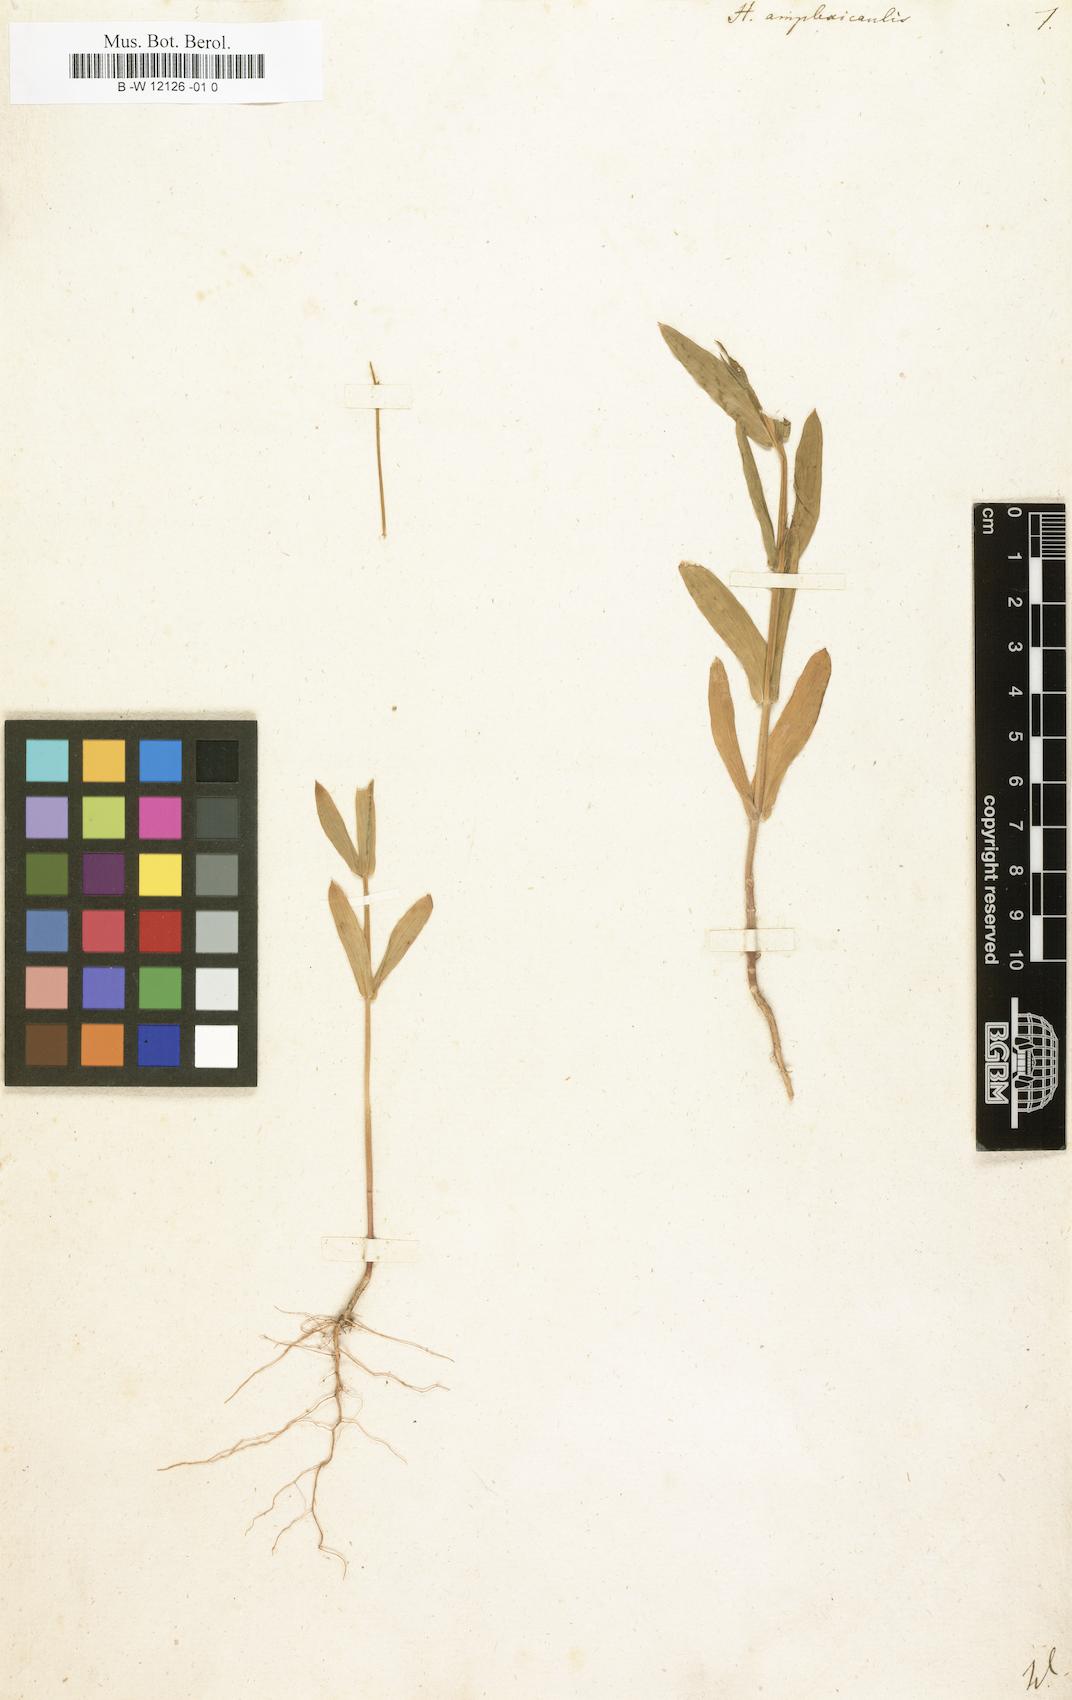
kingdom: Plantae
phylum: Tracheophyta
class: Magnoliopsida
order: Brassicales
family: Brassicaceae
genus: Heliophila
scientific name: Heliophila amplexicaulis
